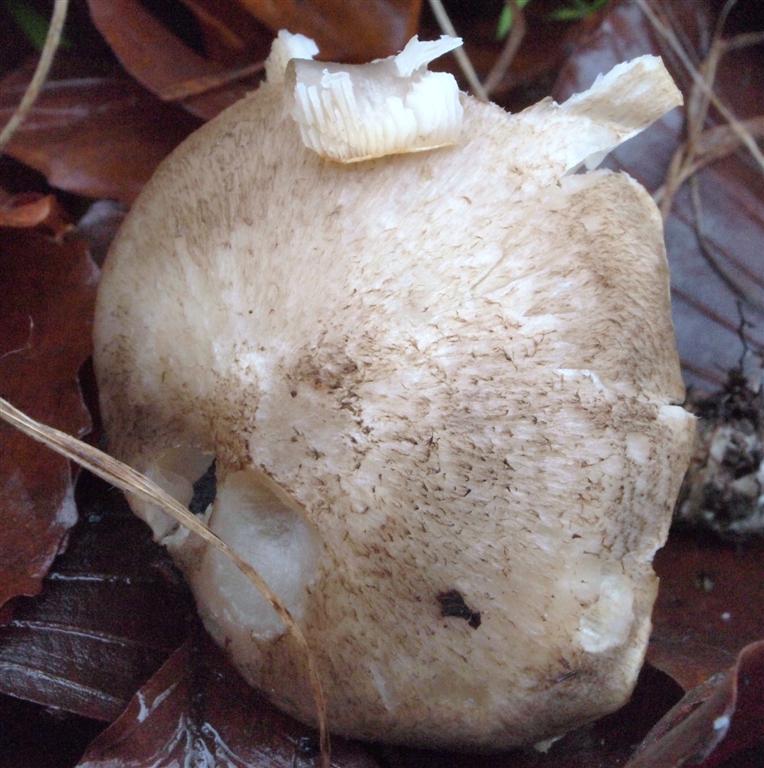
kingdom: Fungi
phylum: Basidiomycota
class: Agaricomycetes
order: Agaricales
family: Tricholomataceae
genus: Tricholoma
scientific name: Tricholoma scalpturatum
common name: gulplettet ridderhat
